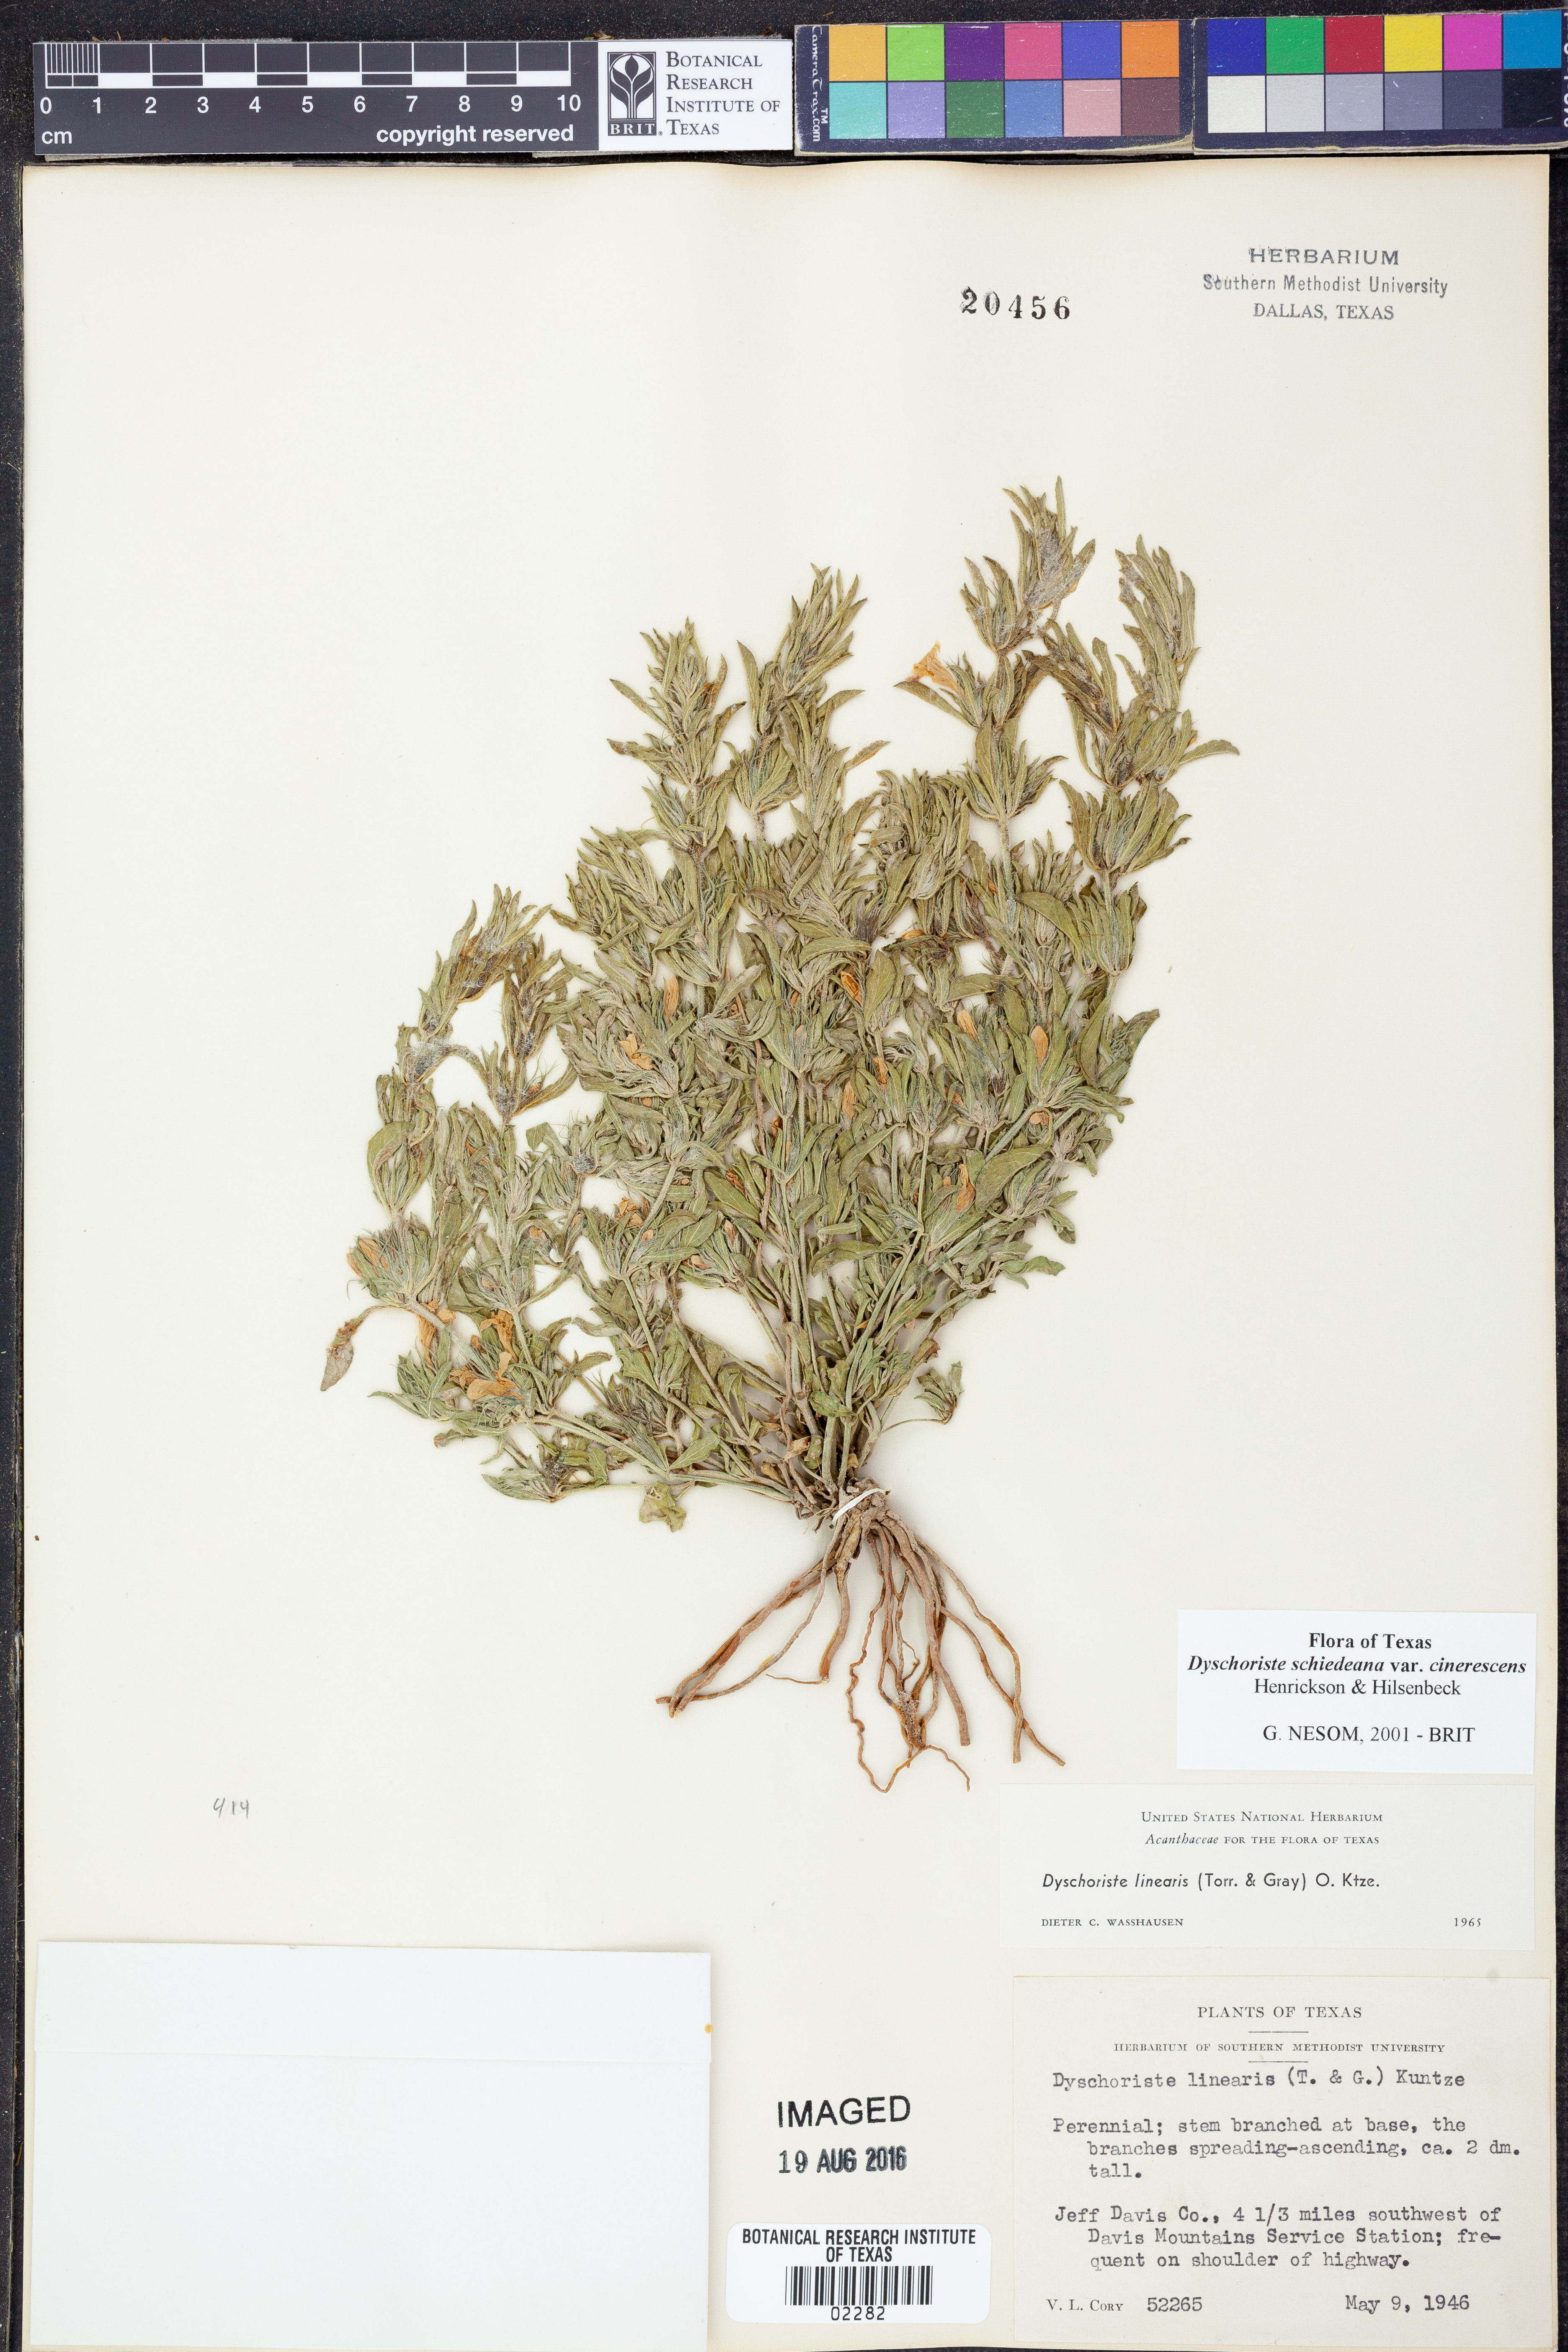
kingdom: Plantae
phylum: Tracheophyta
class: Magnoliopsida
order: Lamiales
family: Acanthaceae
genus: Dyschoriste
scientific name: Dyschoriste cinerascens
